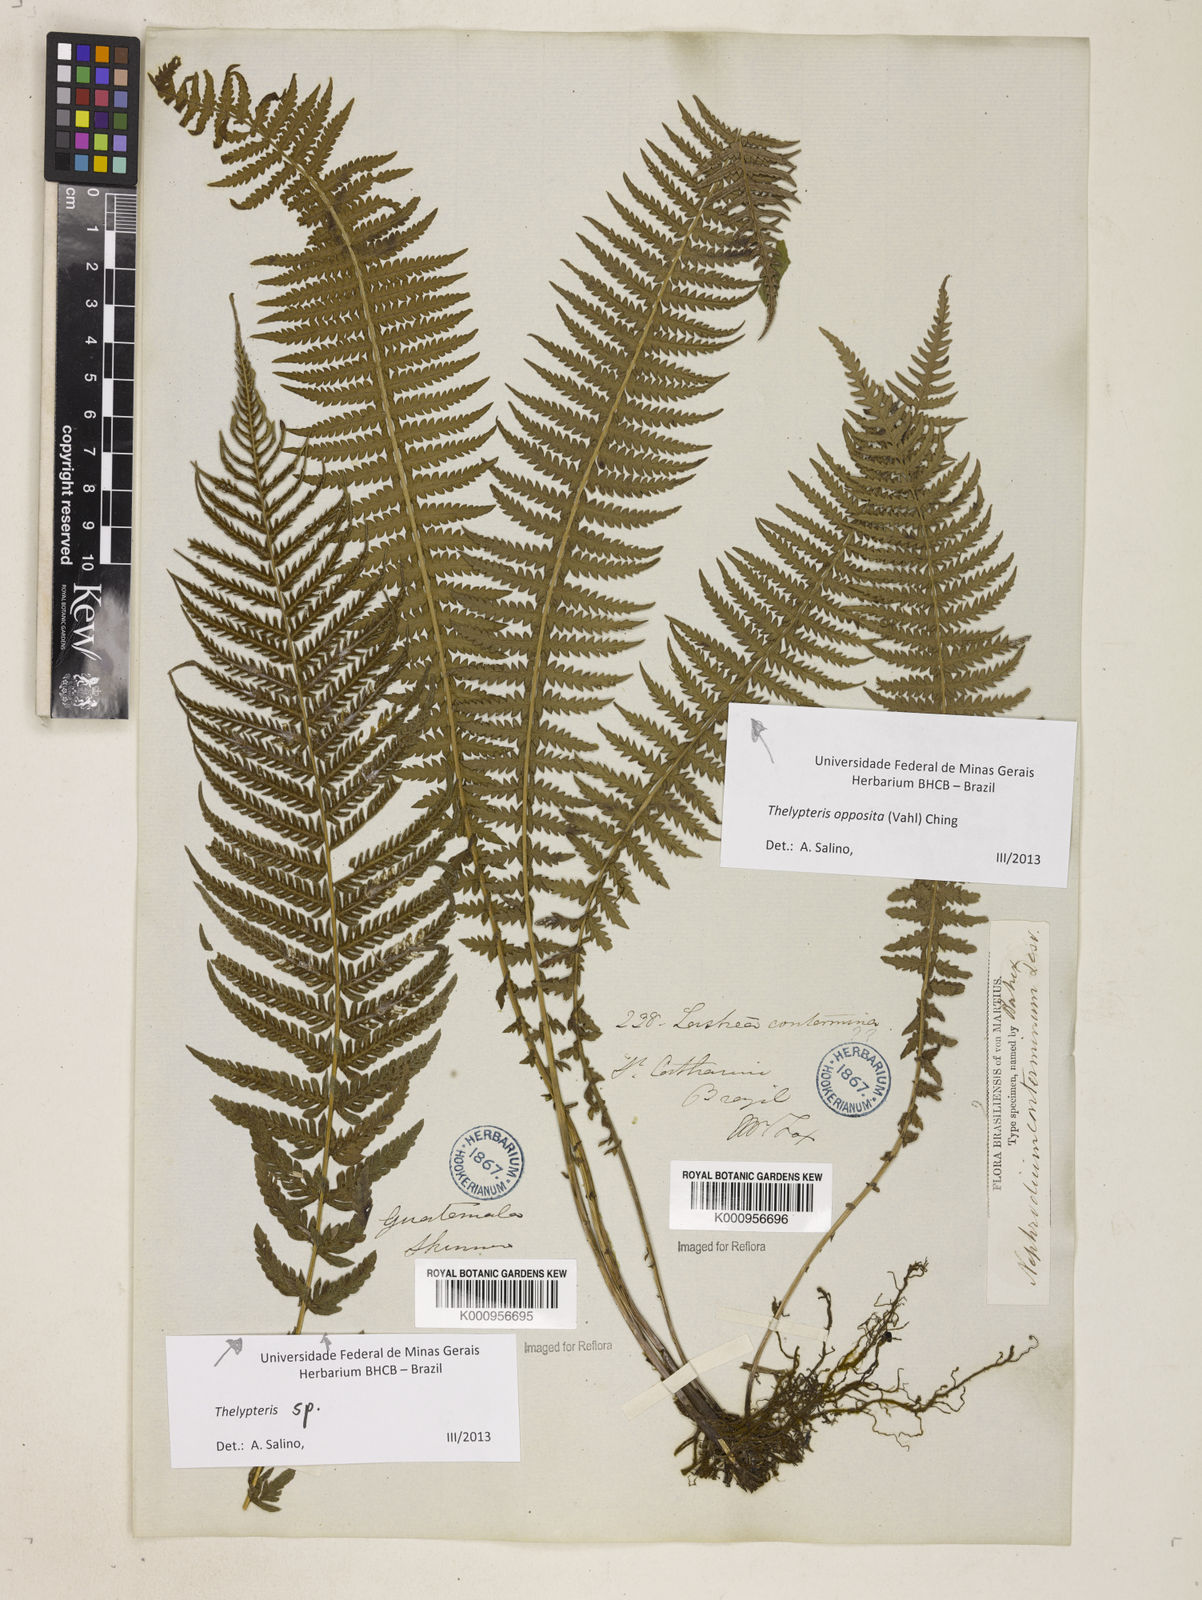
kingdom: Plantae
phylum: Tracheophyta
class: Polypodiopsida
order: Polypodiales
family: Thelypteridaceae
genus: Amauropelta
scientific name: Amauropelta opposita
